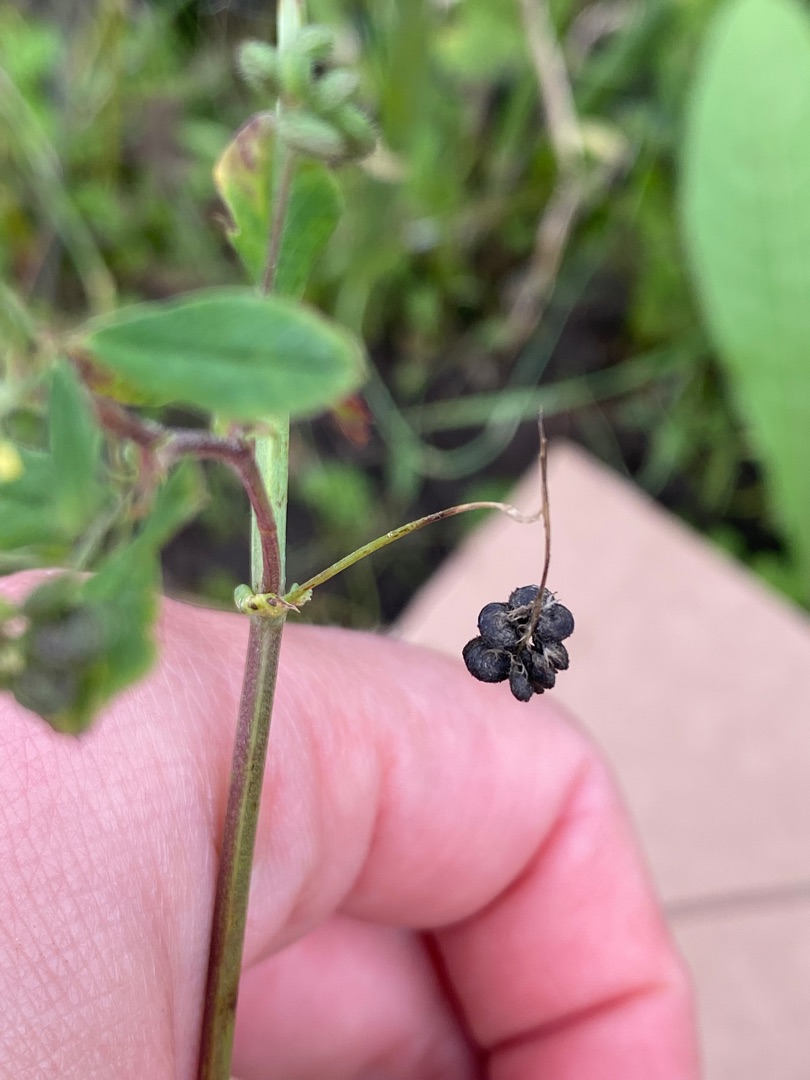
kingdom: Plantae
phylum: Tracheophyta
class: Magnoliopsida
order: Fabales
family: Fabaceae
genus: Medicago
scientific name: Medicago lupulina
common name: Humle-sneglebælg
